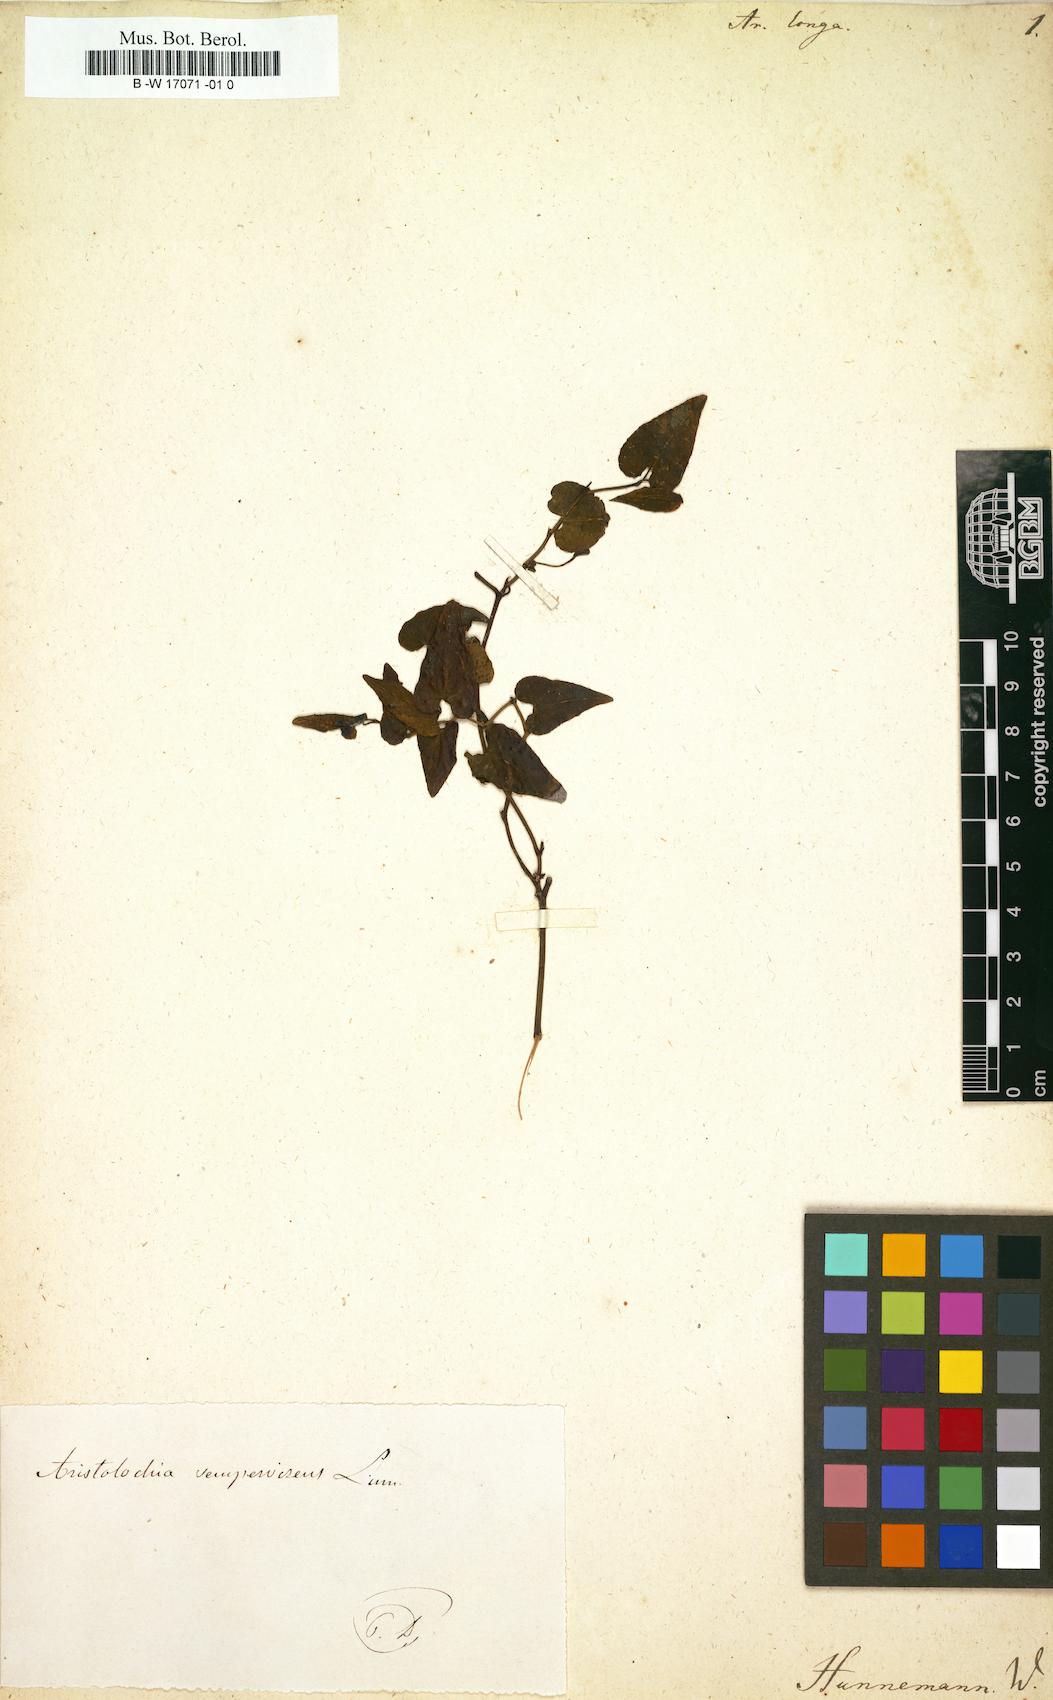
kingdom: Plantae
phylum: Tracheophyta
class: Magnoliopsida
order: Piperales
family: Aristolochiaceae
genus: Aristolochia
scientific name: Aristolochia fontanesii
